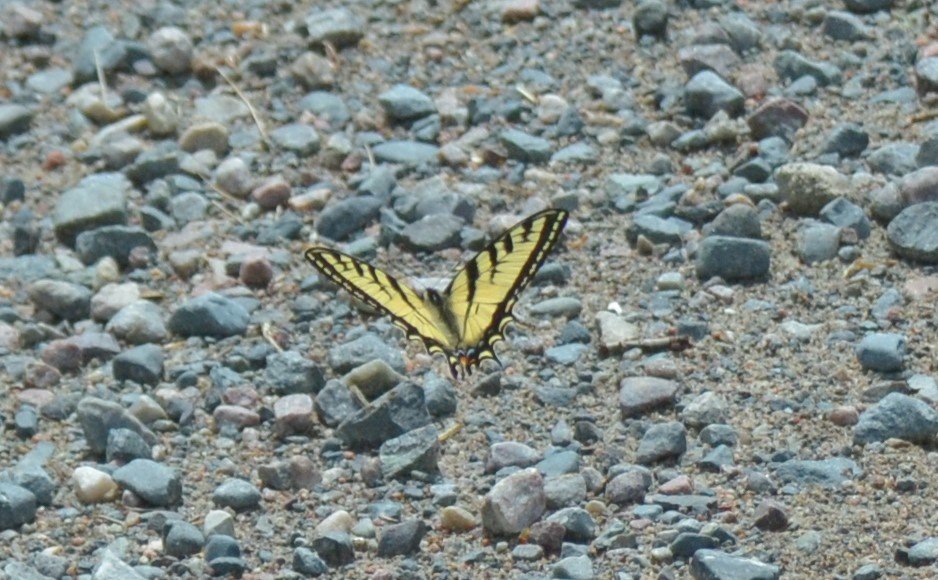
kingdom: Animalia
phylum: Arthropoda
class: Insecta
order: Lepidoptera
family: Papilionidae
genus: Pterourus
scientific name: Pterourus canadensis
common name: Canadian Tiger Swallowtail
